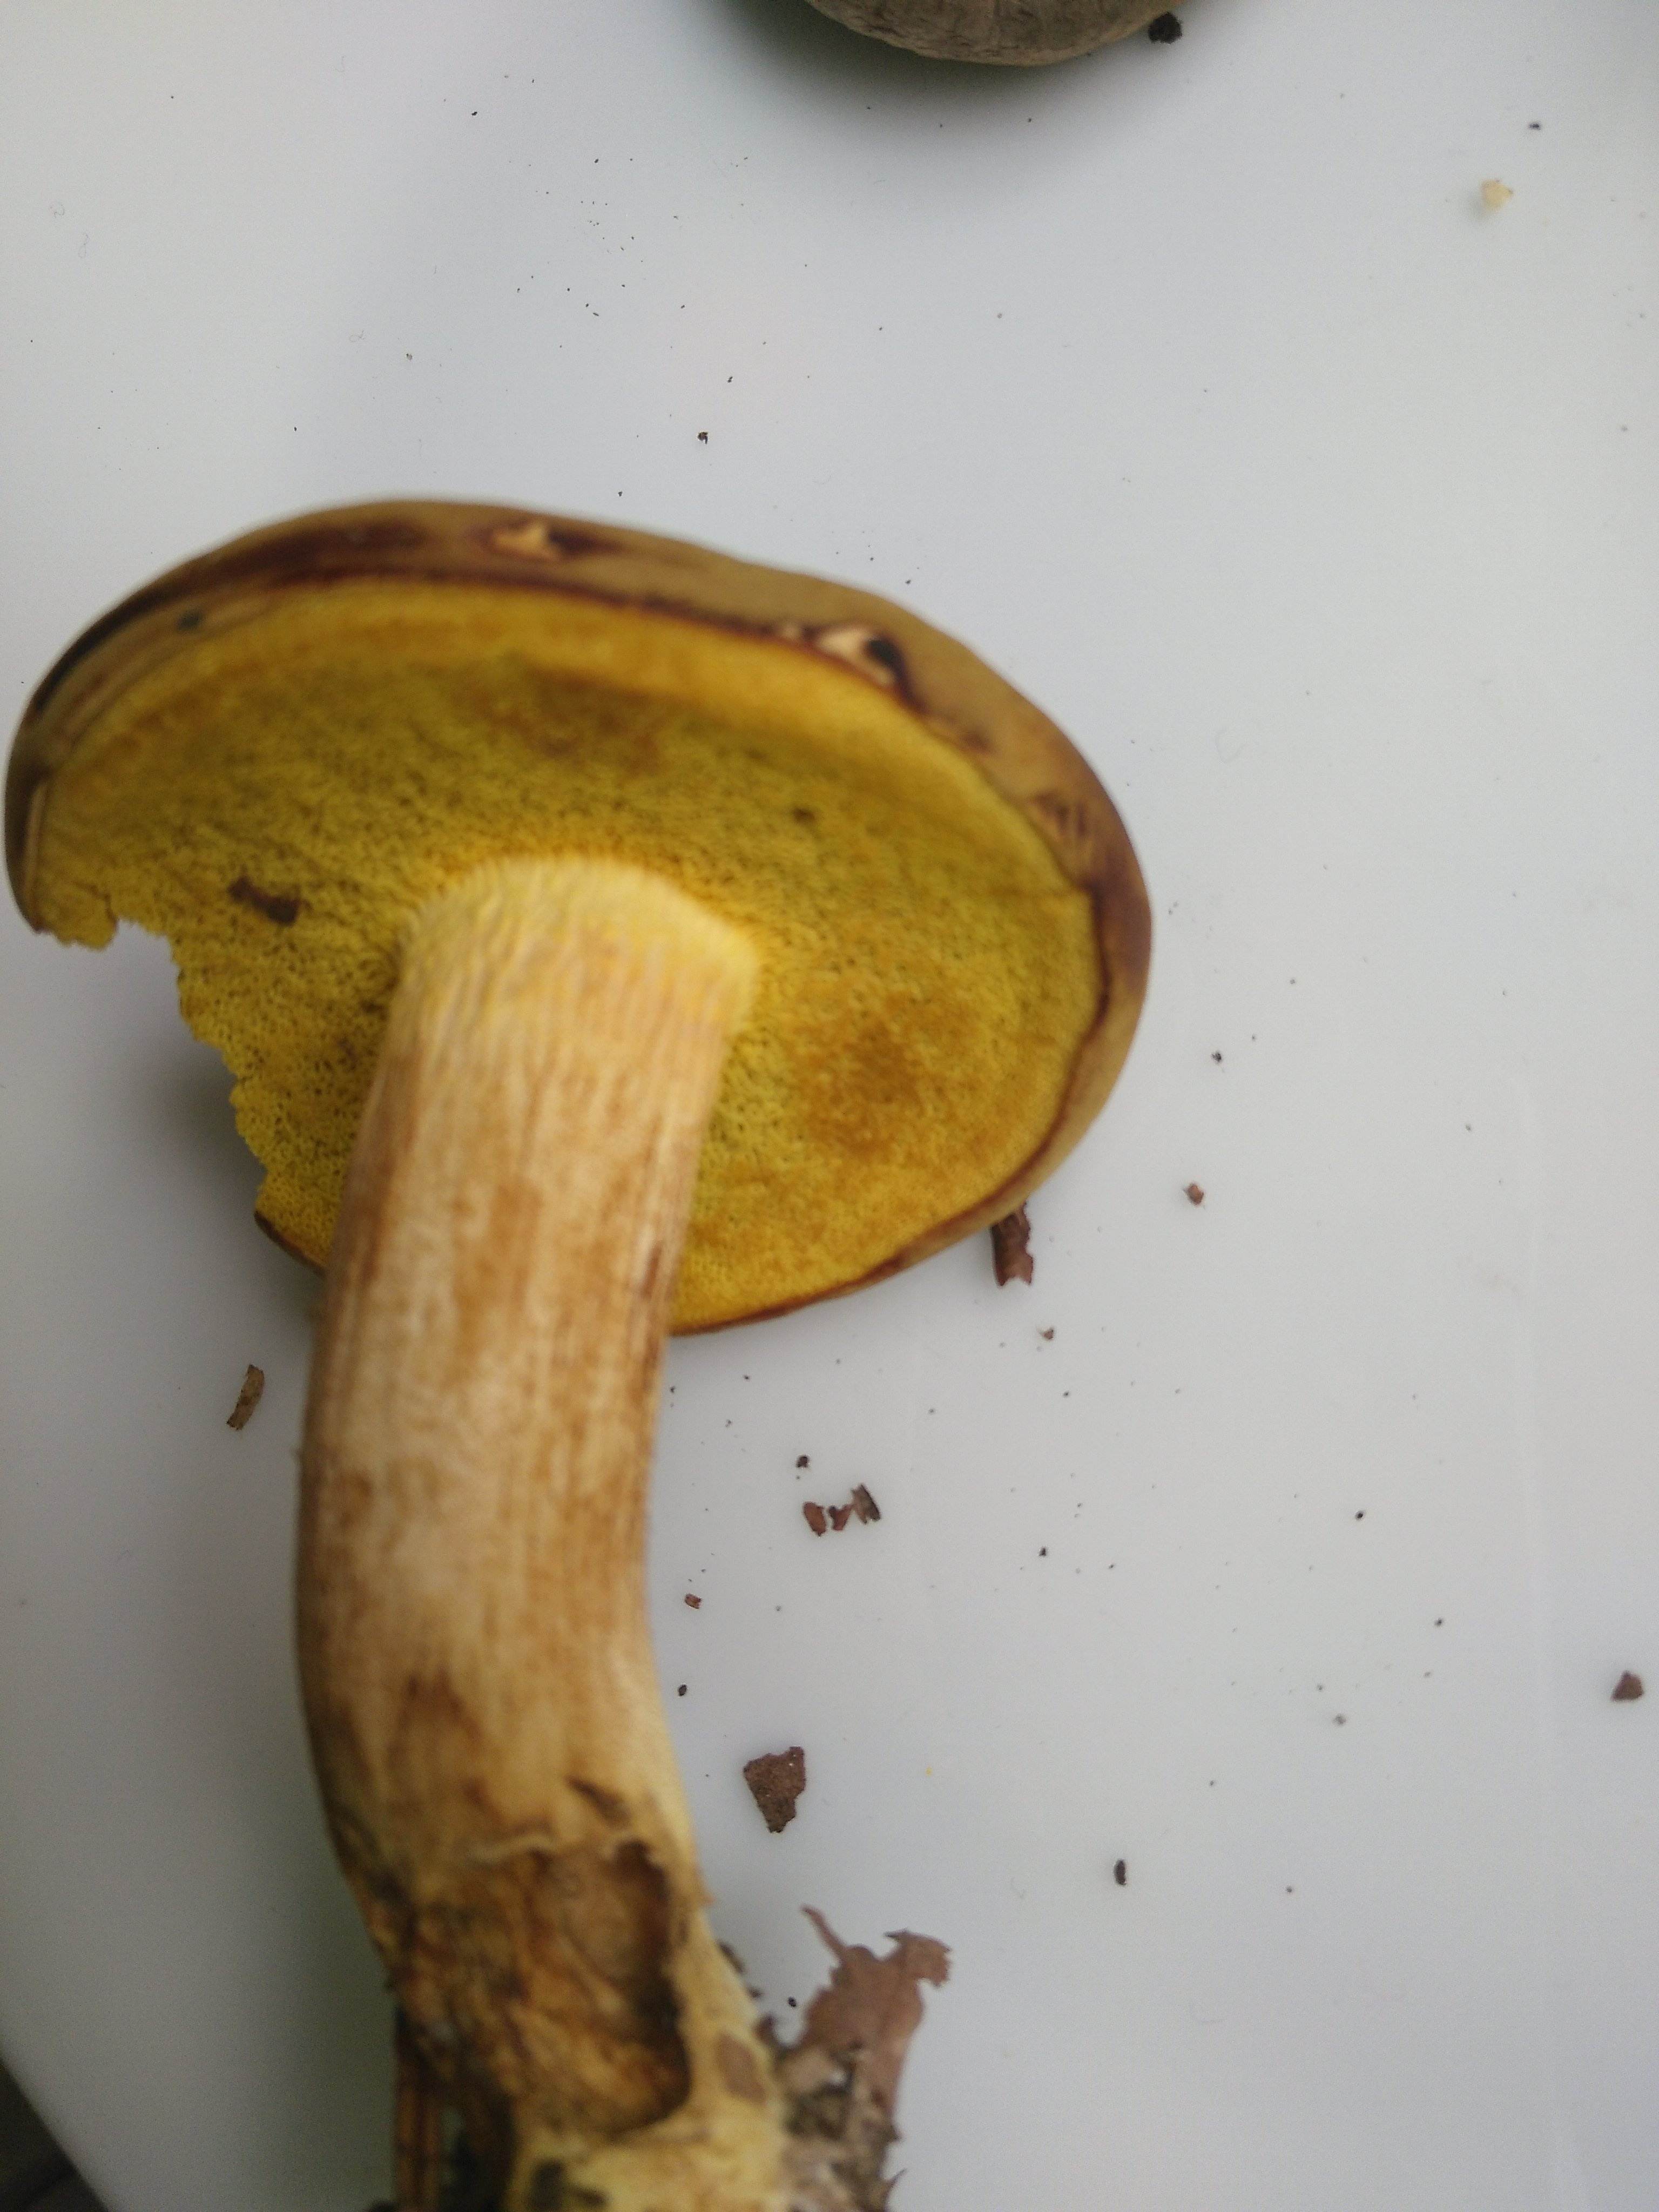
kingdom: Fungi
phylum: Basidiomycota
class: Agaricomycetes
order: Boletales
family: Boletaceae
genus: Xerocomus
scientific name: Xerocomus
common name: filtrørhat
